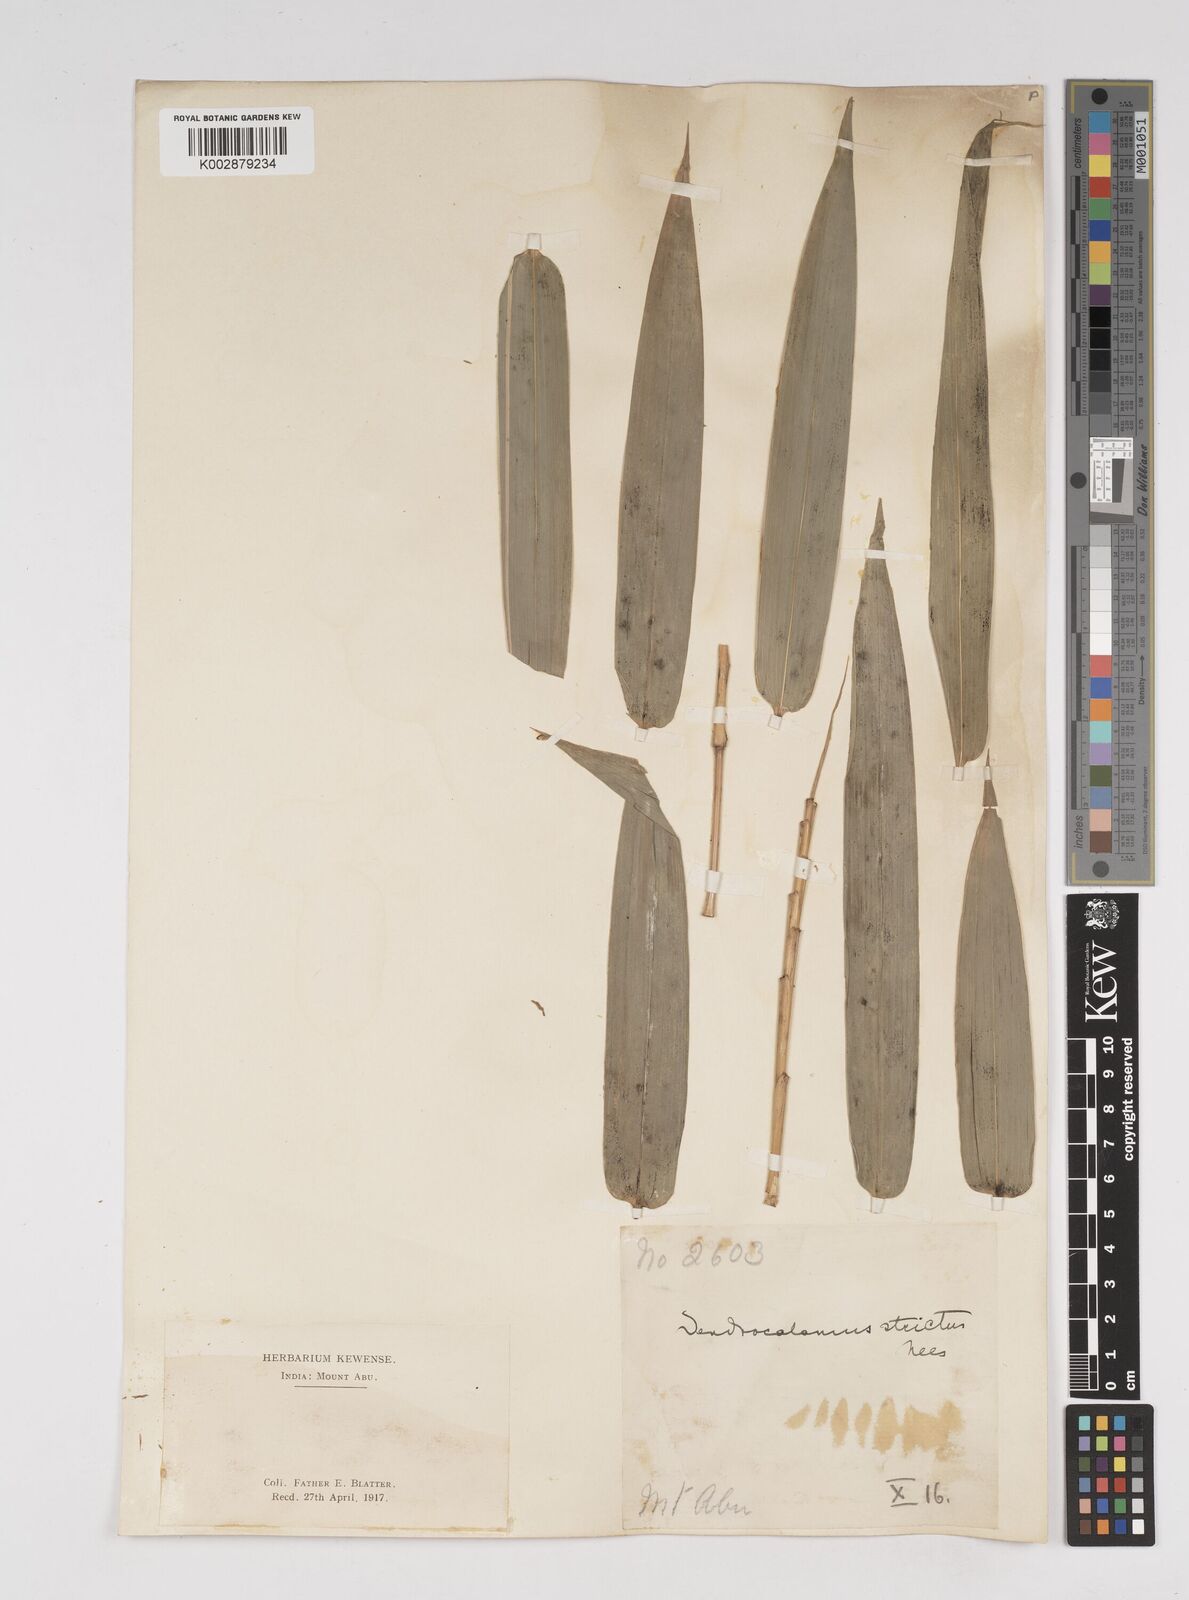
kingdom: Plantae
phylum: Tracheophyta
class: Liliopsida
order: Poales
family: Poaceae
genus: Dendrocalamus
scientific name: Dendrocalamus strictus
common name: Male bamboo
